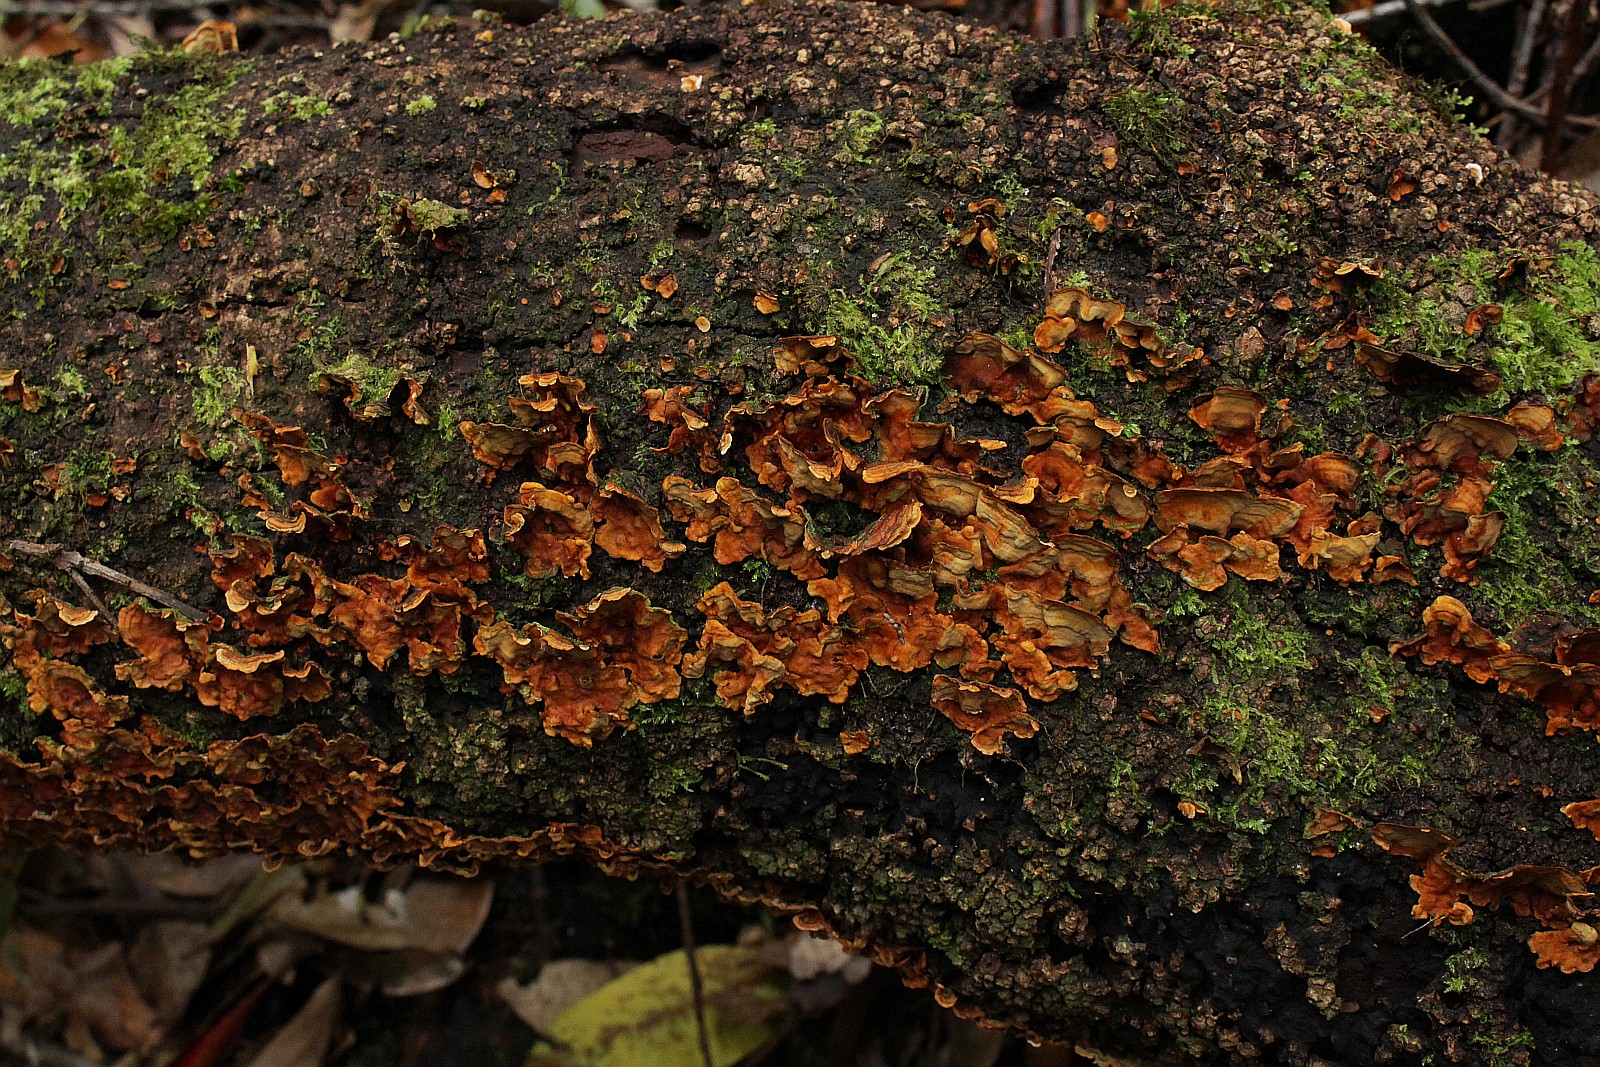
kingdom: Fungi
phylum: Basidiomycota
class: Agaricomycetes
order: Russulales
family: Stereaceae
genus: Stereum
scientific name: Stereum
